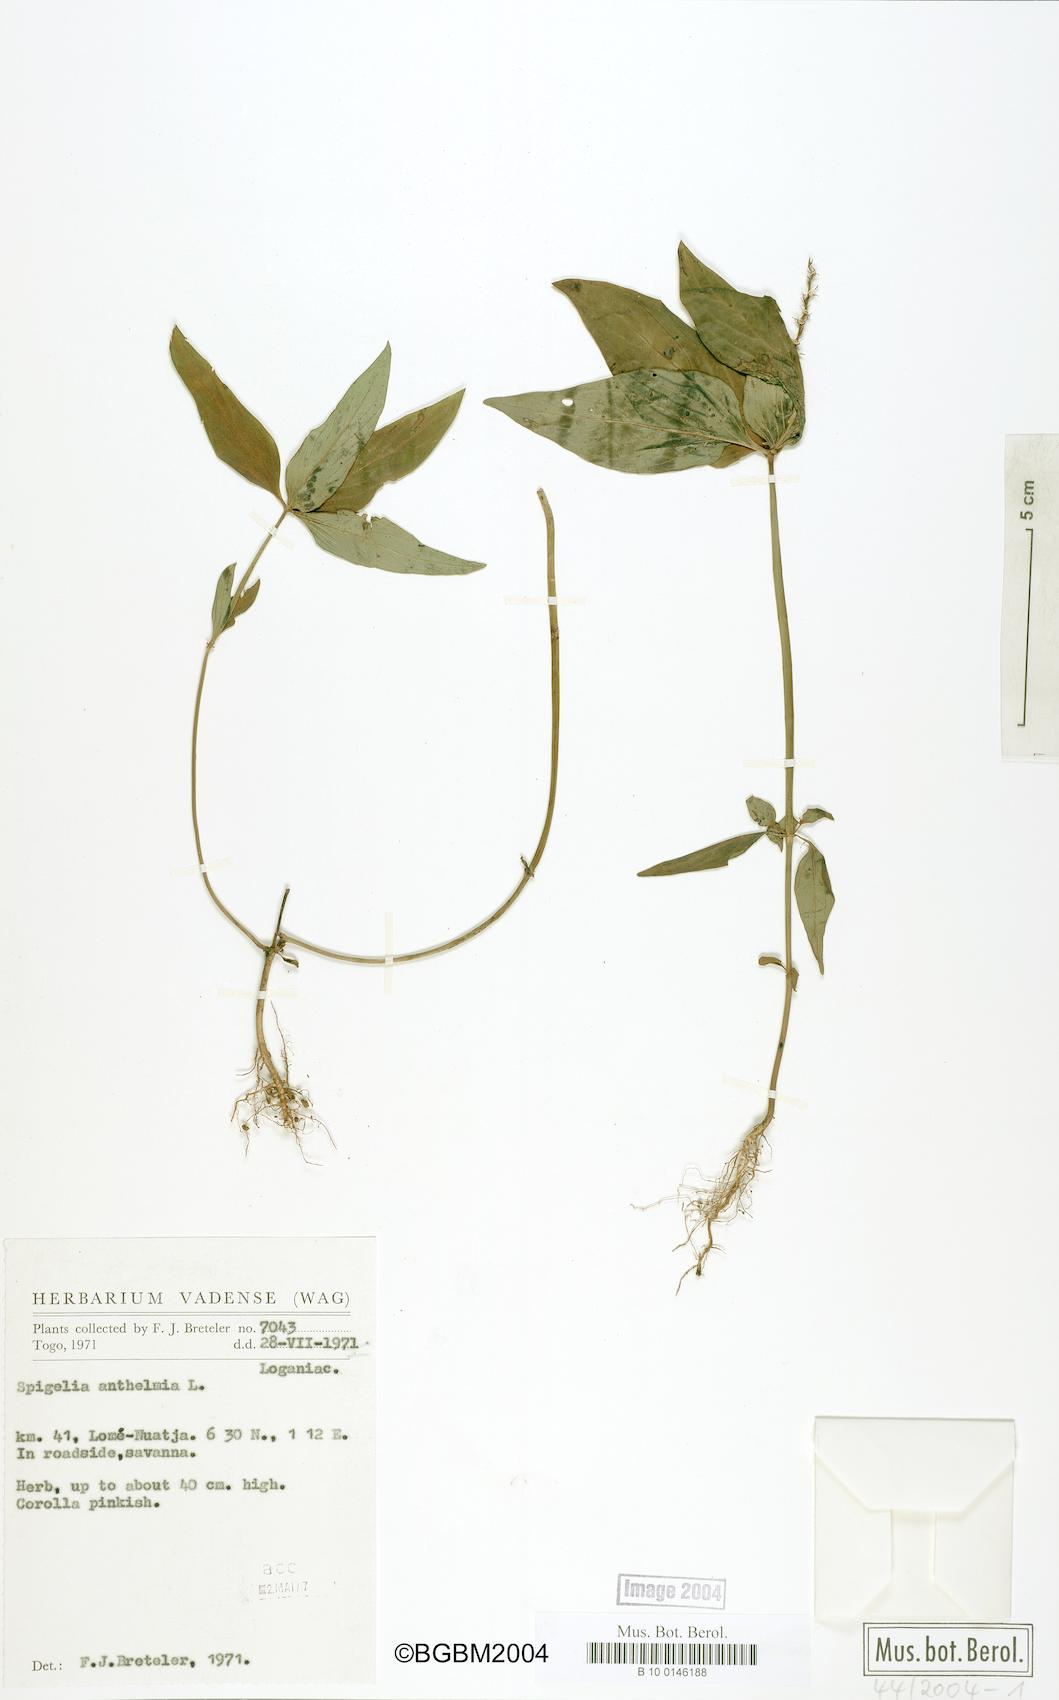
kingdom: Plantae
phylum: Tracheophyta
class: Magnoliopsida
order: Gentianales
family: Loganiaceae
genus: Spigelia
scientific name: Spigelia anthelmia
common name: West indian-pink
